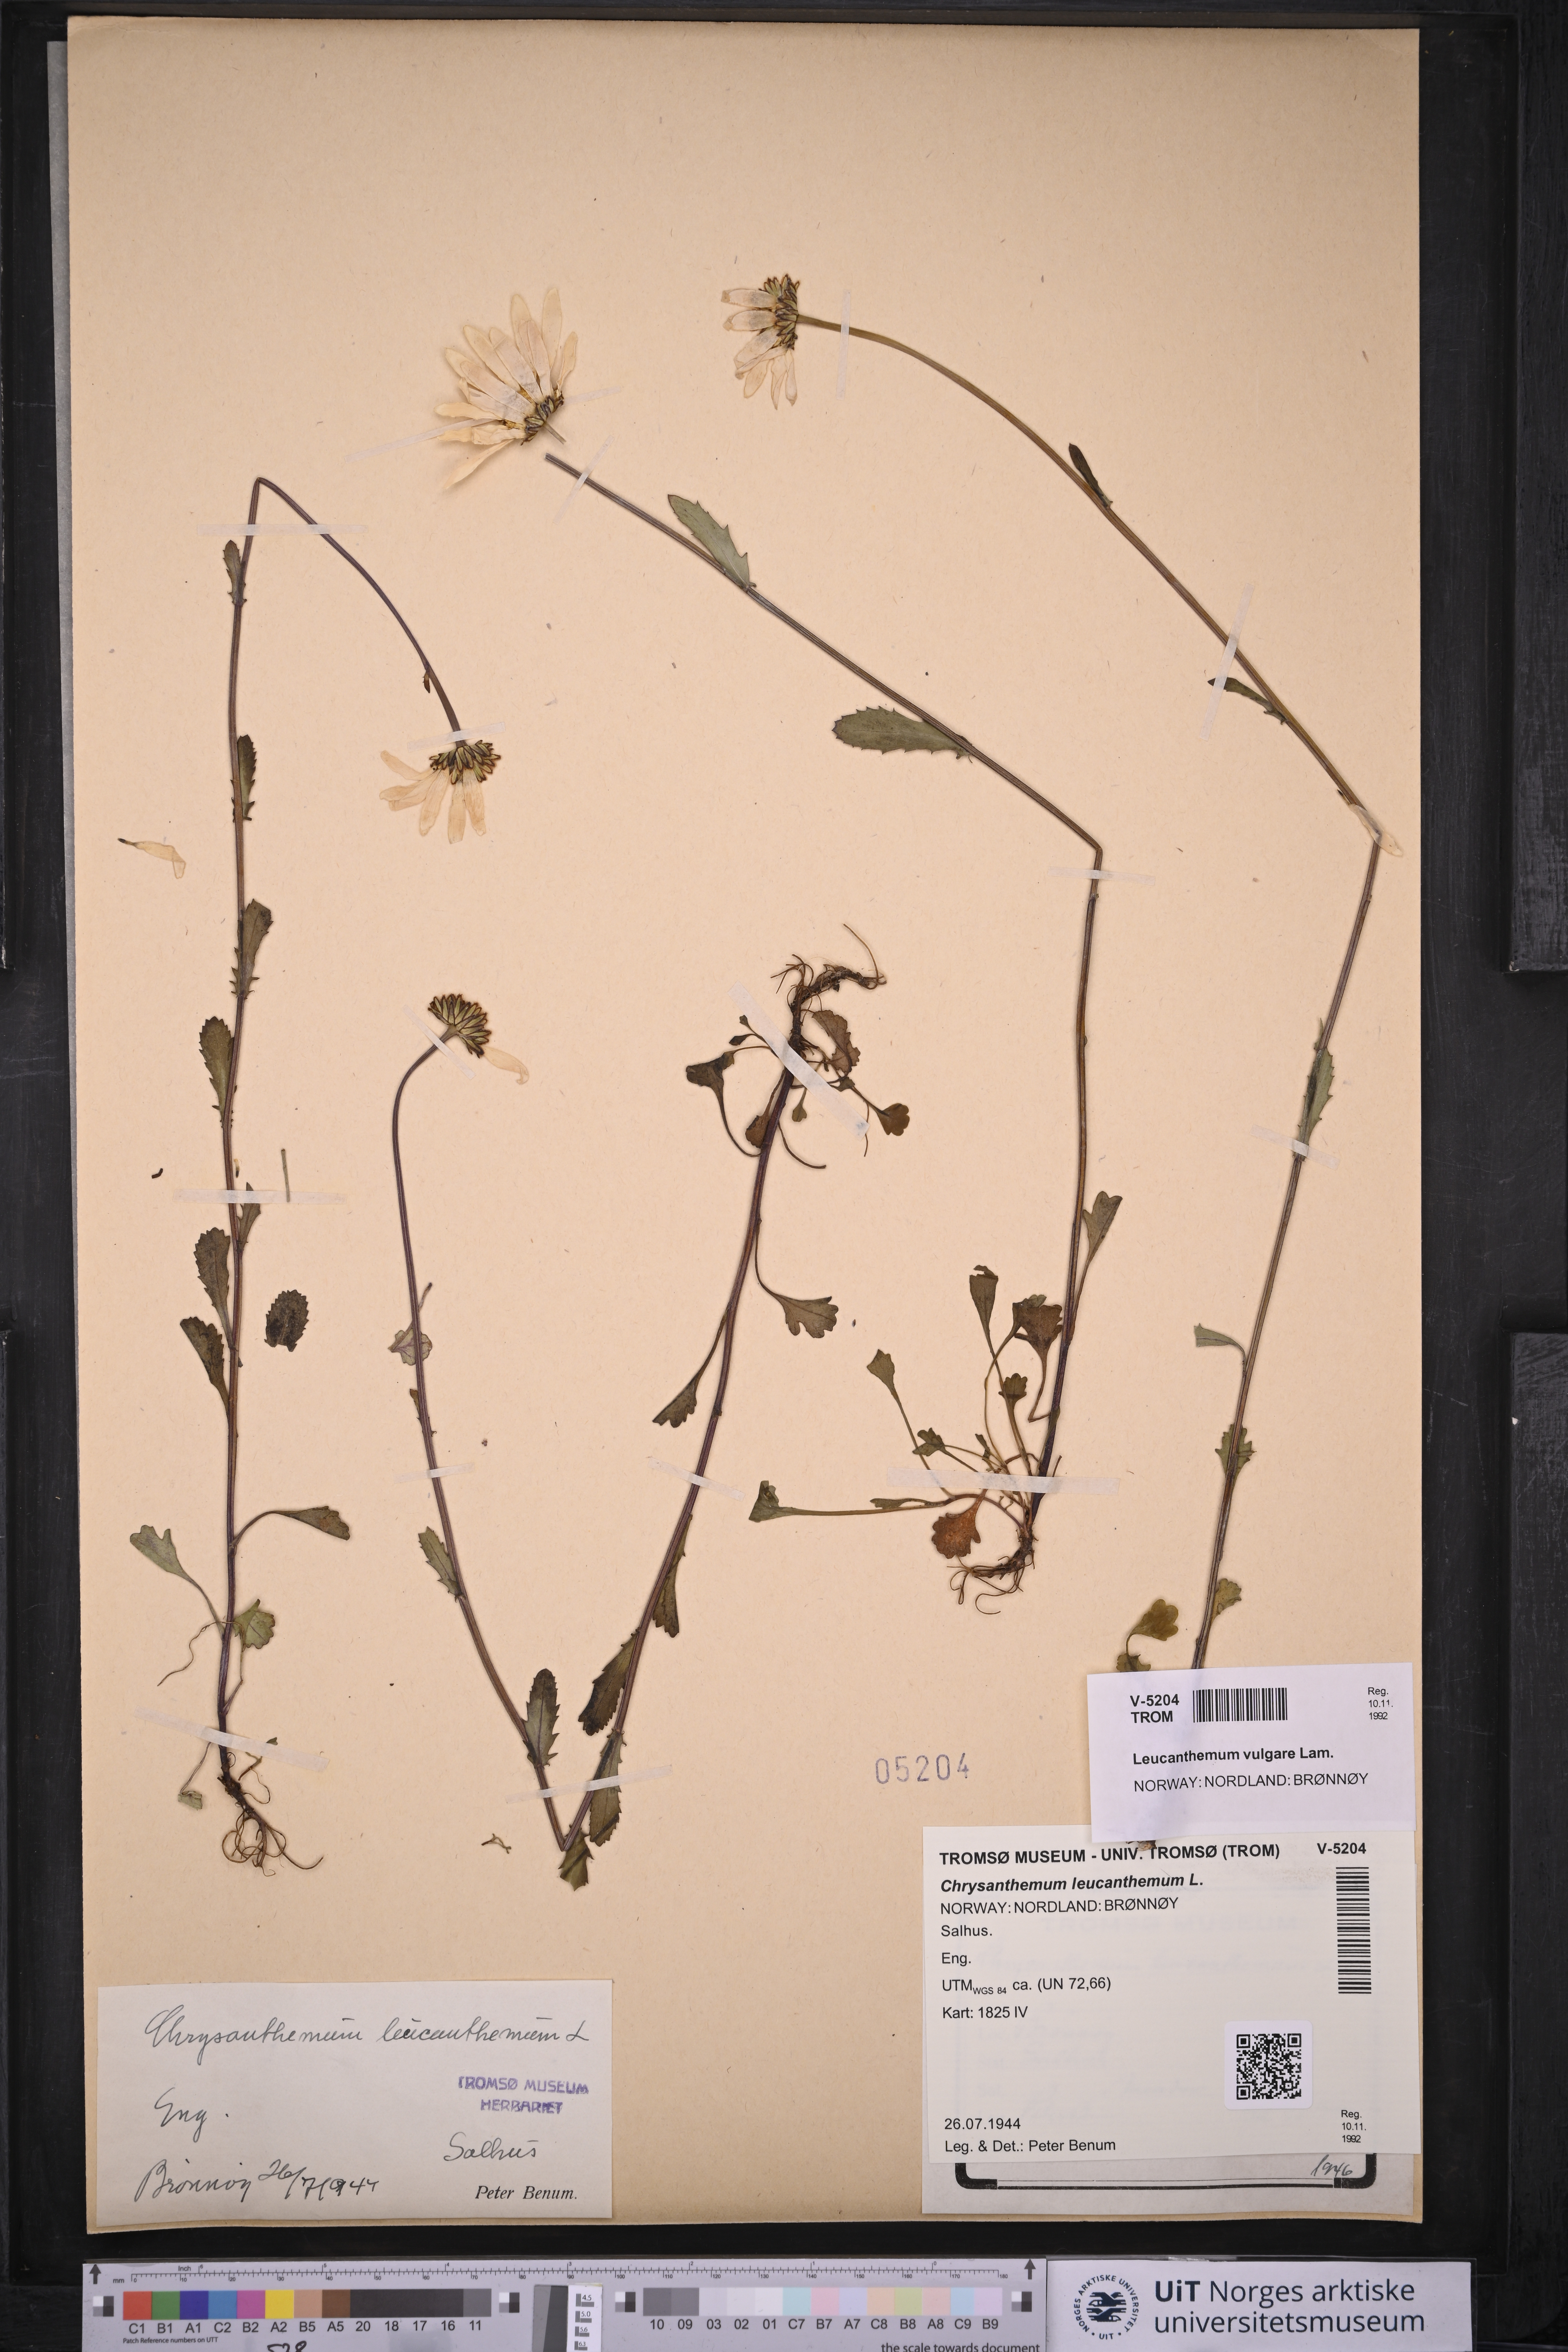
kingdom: Plantae
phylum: Tracheophyta
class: Magnoliopsida
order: Asterales
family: Asteraceae
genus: Leucanthemum
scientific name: Leucanthemum vulgare
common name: Oxeye daisy
